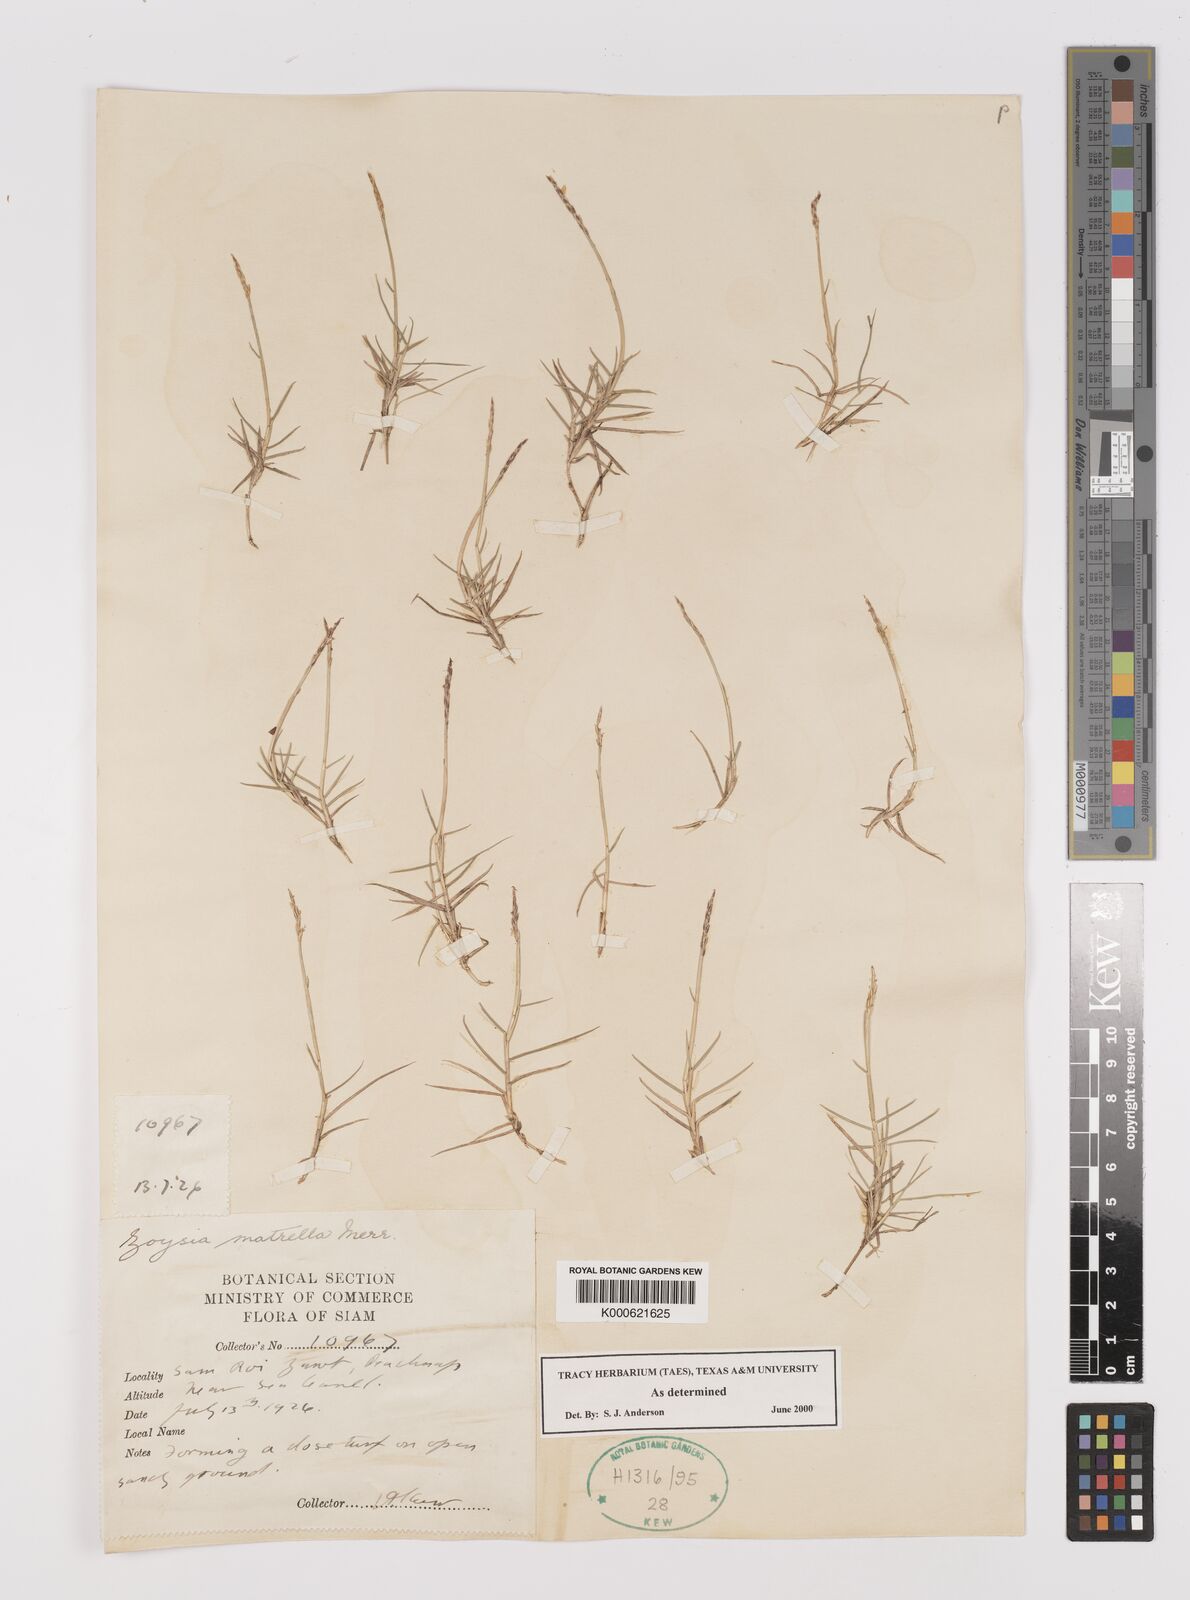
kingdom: Plantae
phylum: Tracheophyta
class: Liliopsida
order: Poales
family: Poaceae
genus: Zoysia
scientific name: Zoysia matrella
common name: Manila grass
